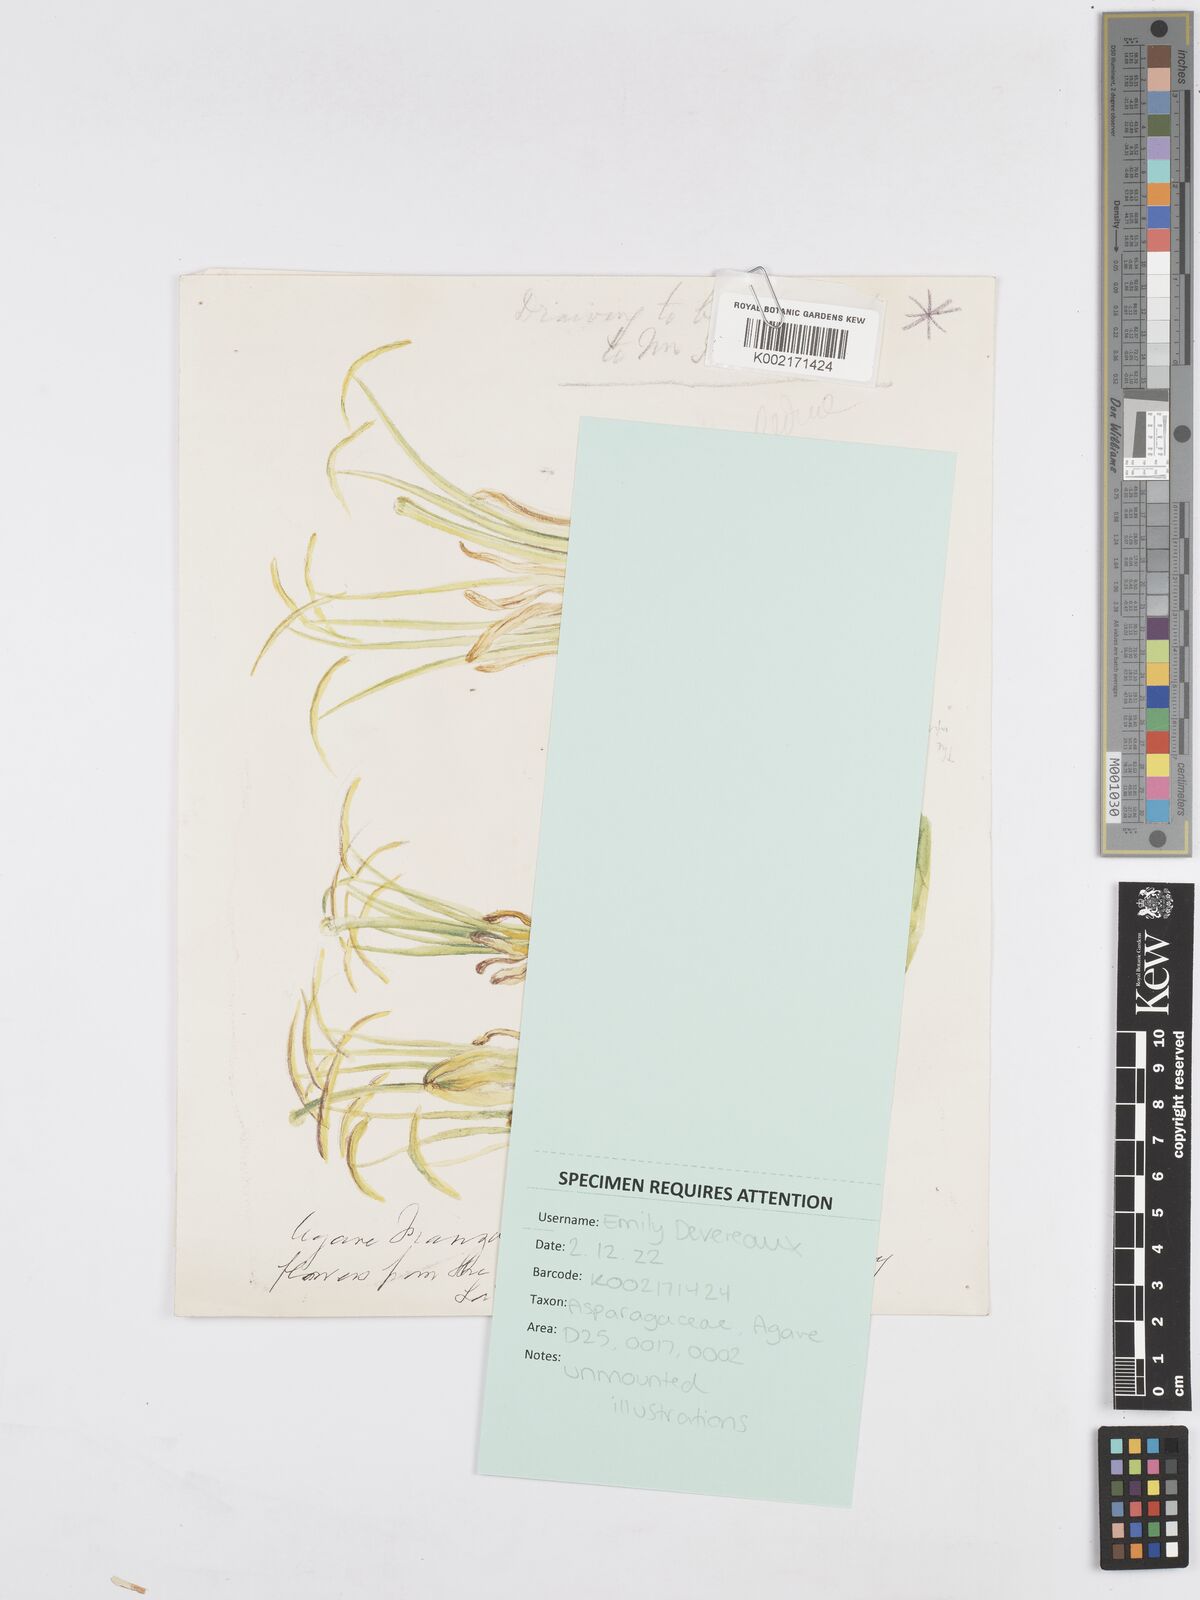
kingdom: Plantae
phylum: Tracheophyta
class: Liliopsida
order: Asparagales
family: Asparagaceae
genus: Agave
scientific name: Agave
